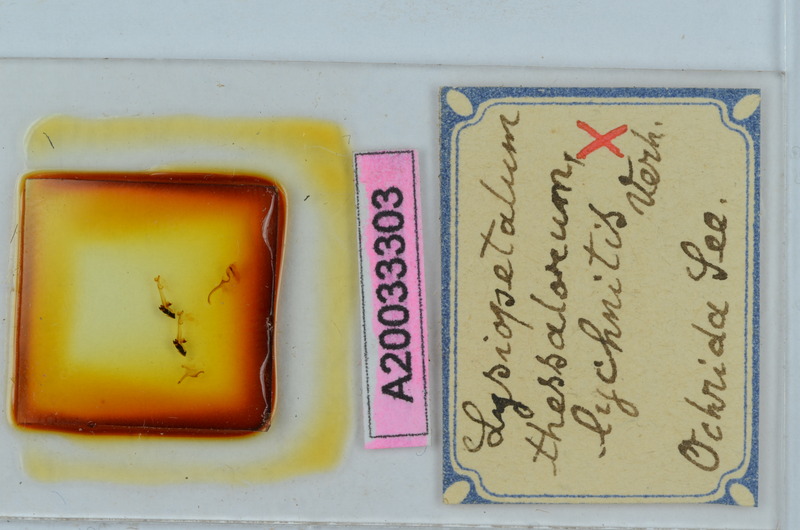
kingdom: Animalia
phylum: Arthropoda
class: Diplopoda
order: Callipodida
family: Schizopetalidae
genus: Acanthopetalum
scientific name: Acanthopetalum thessalorum
